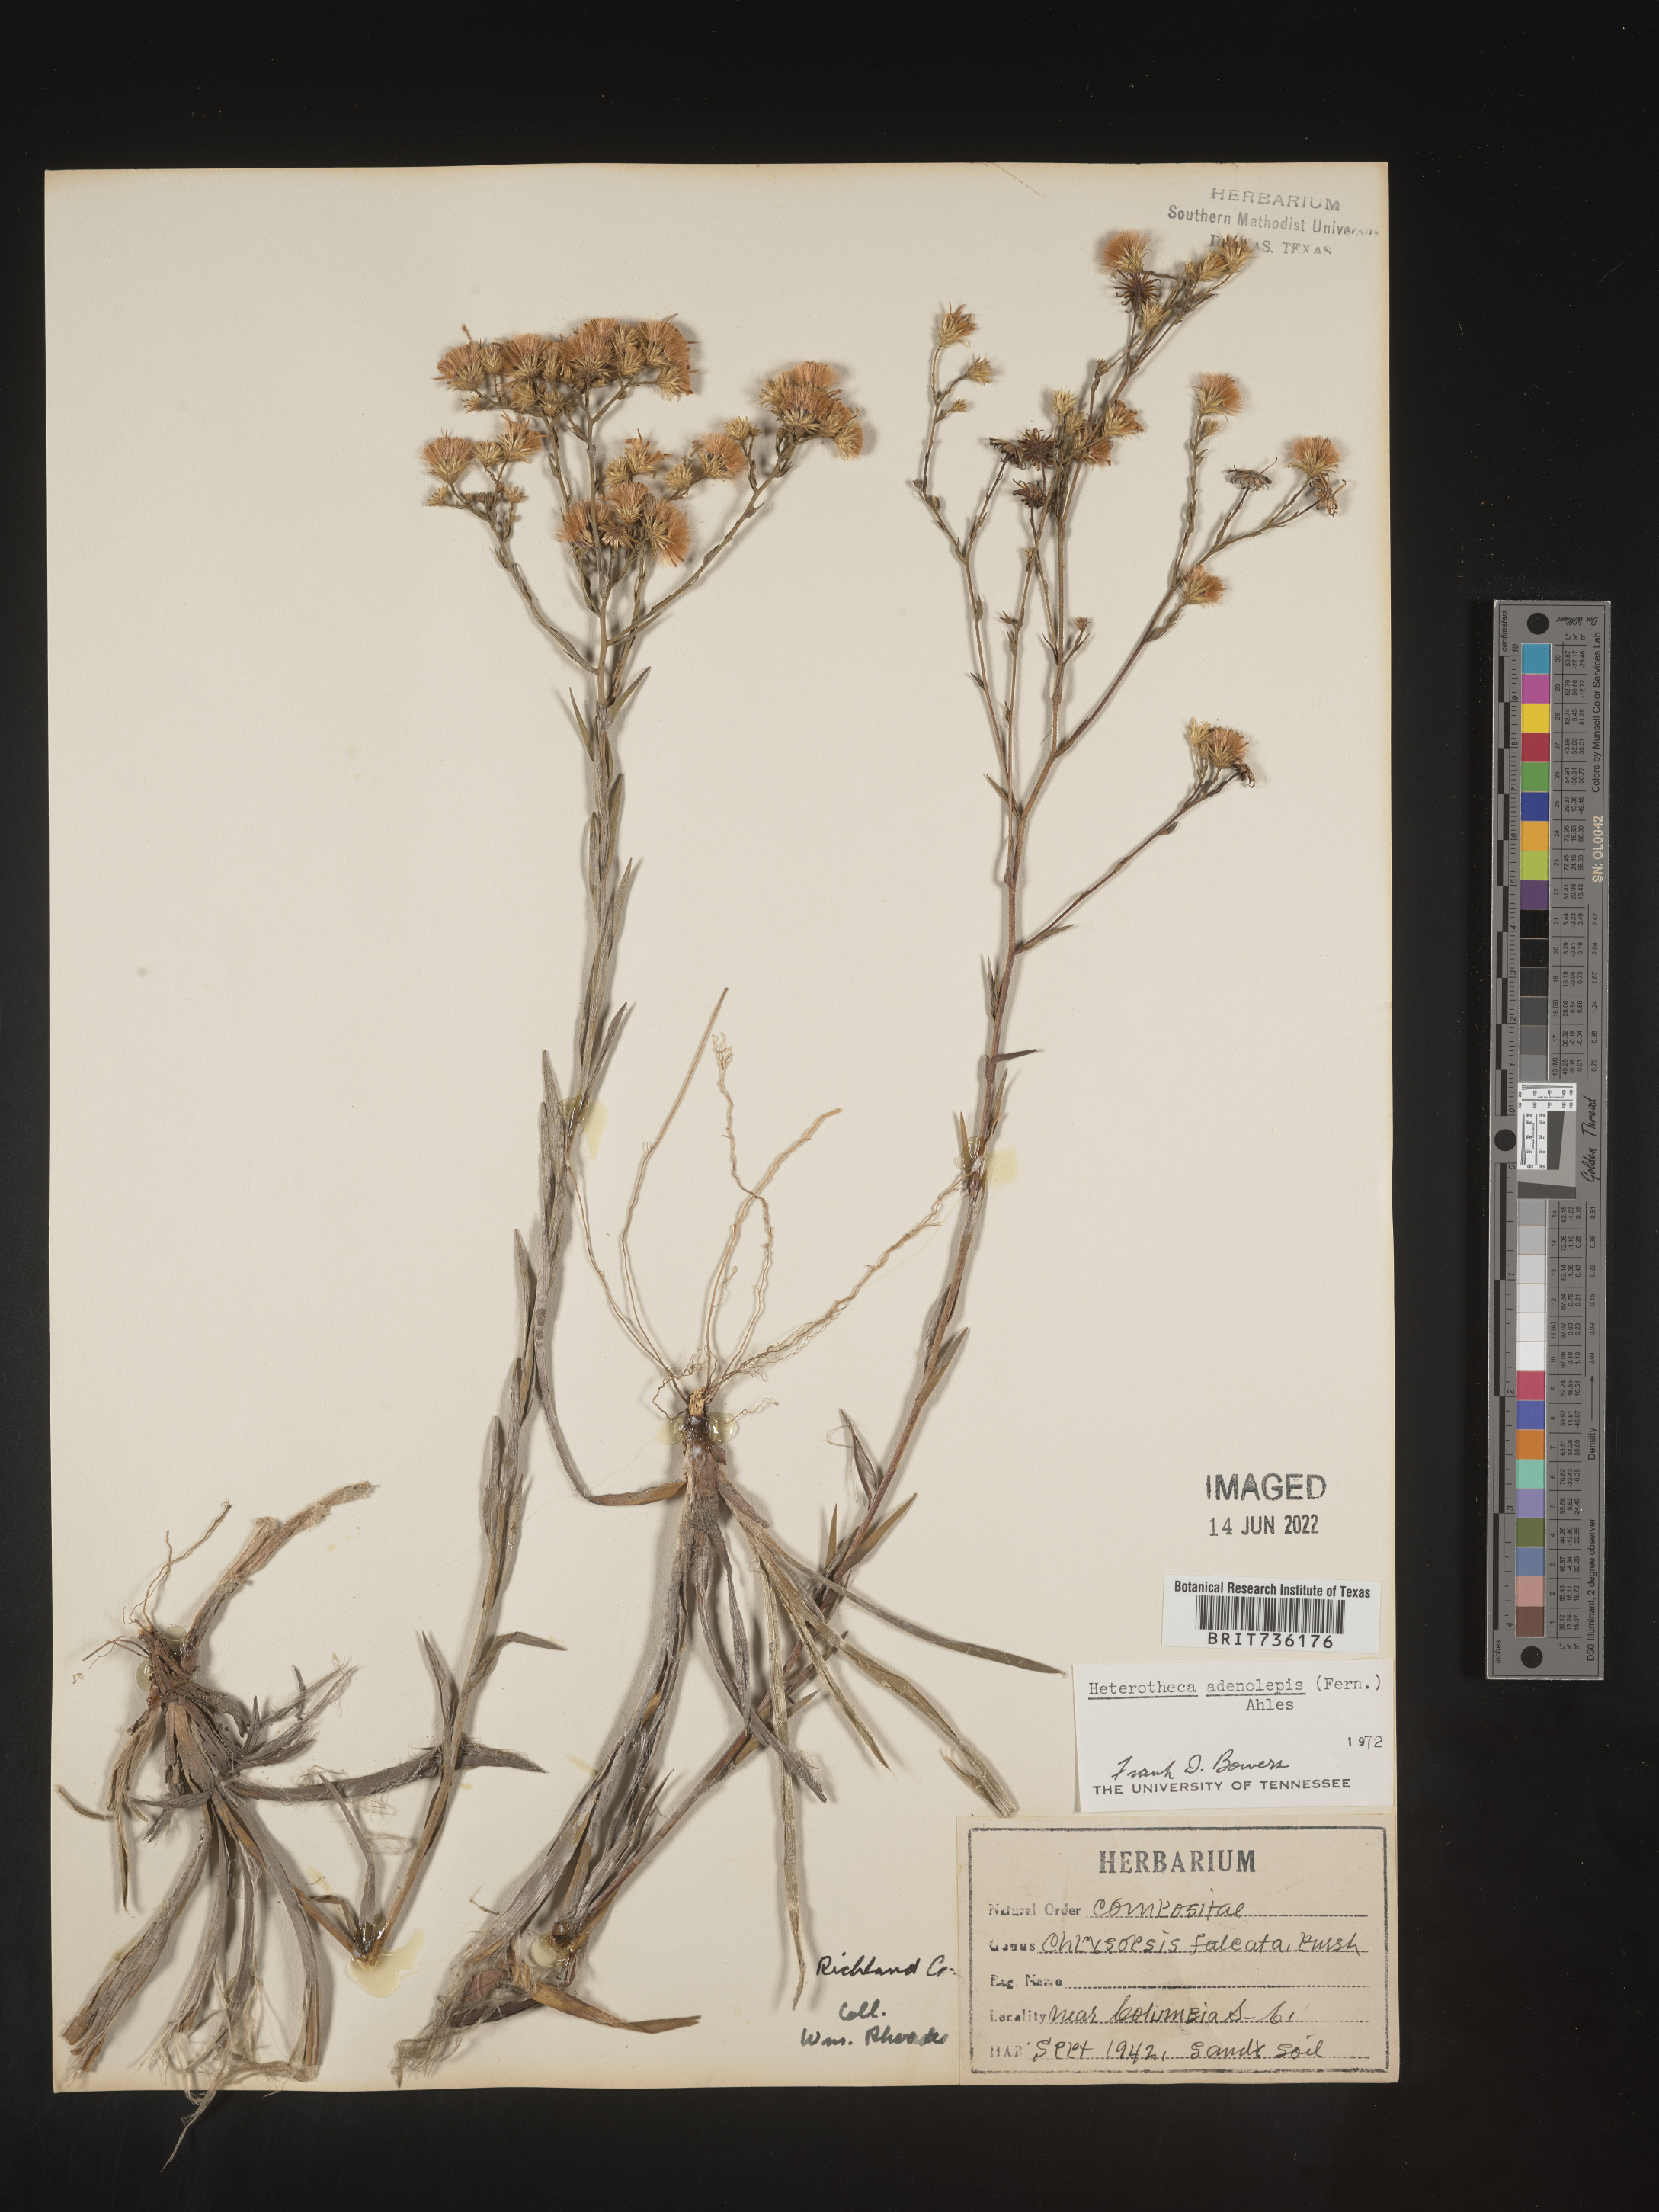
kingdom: Plantae
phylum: Tracheophyta
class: Magnoliopsida
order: Asterales
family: Asteraceae
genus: Pityopsis
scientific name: Pityopsis aspera
